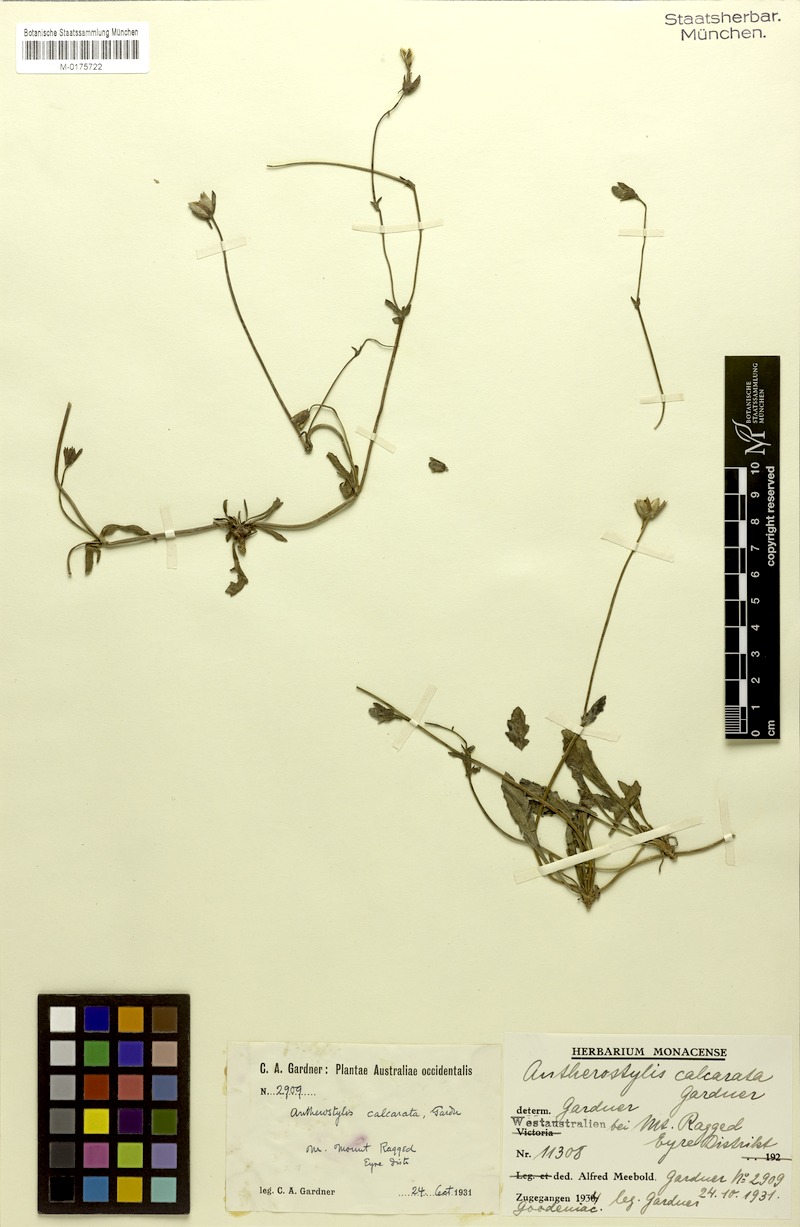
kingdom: Plantae
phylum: Tracheophyta
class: Magnoliopsida
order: Asterales
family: Goodeniaceae
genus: Goodenia
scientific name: Goodenia arguta
